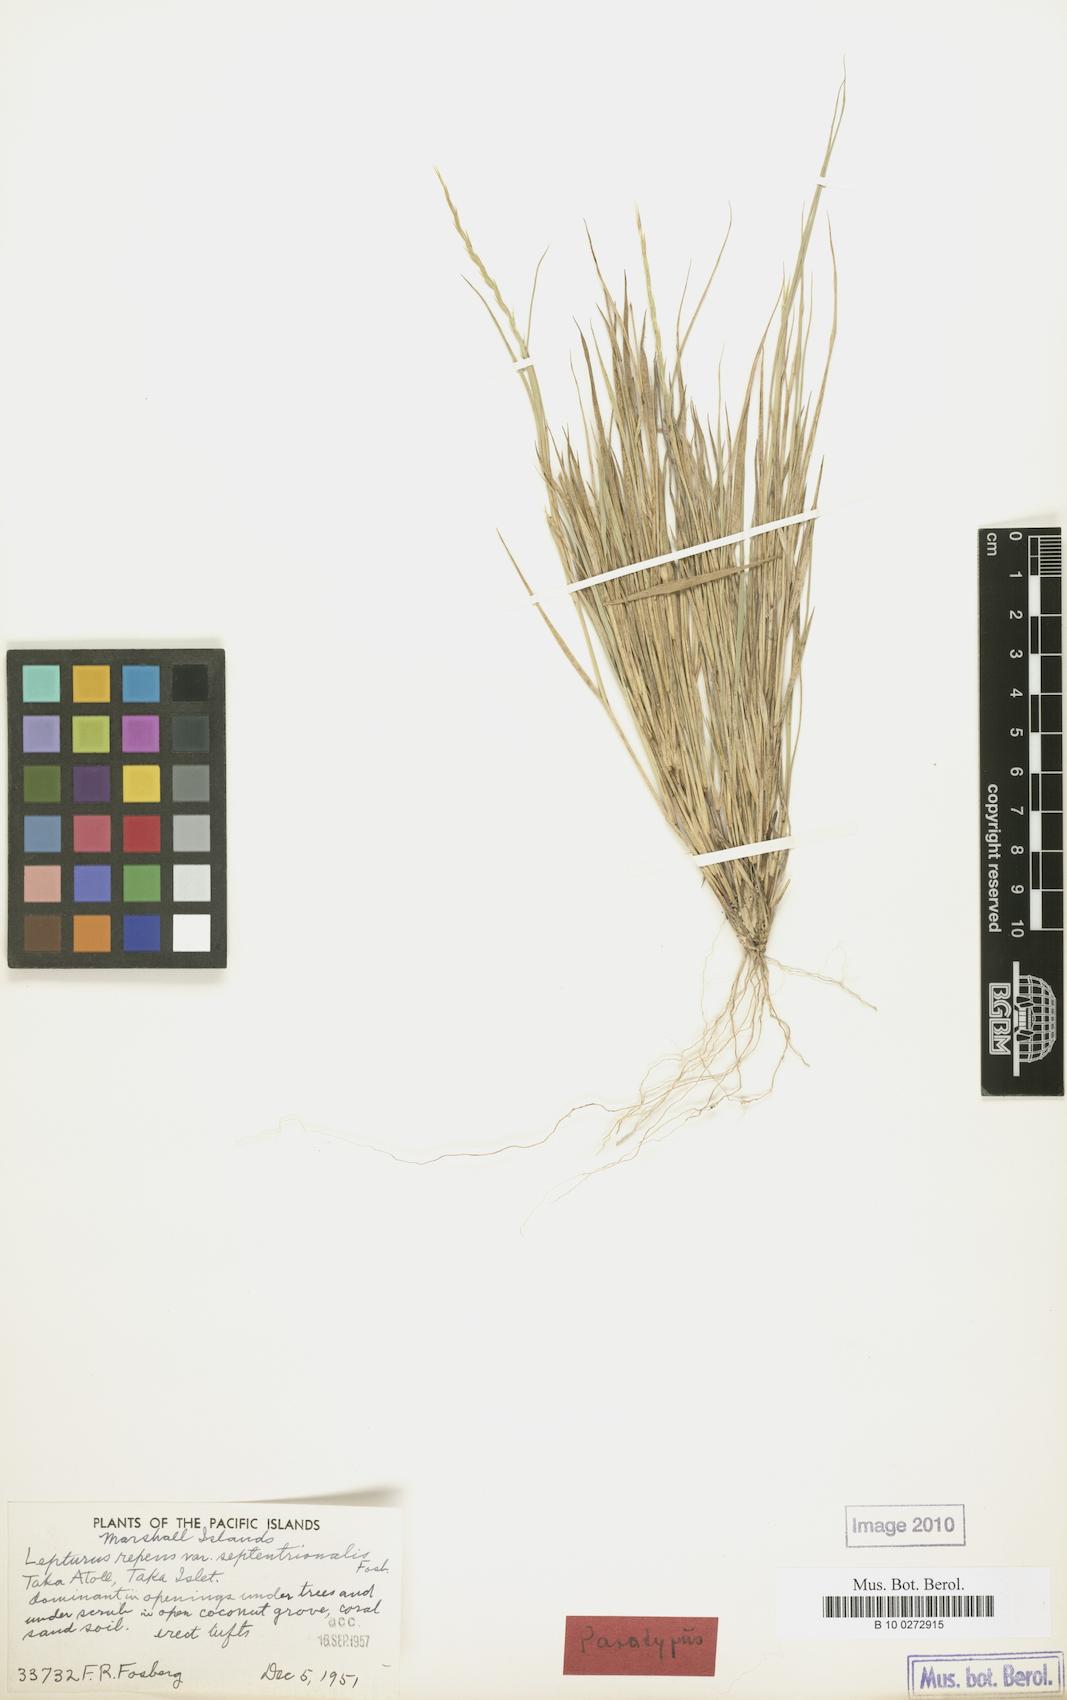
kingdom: Plantae
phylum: Tracheophyta
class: Liliopsida
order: Poales
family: Poaceae
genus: Lepturus
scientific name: Lepturus repens
